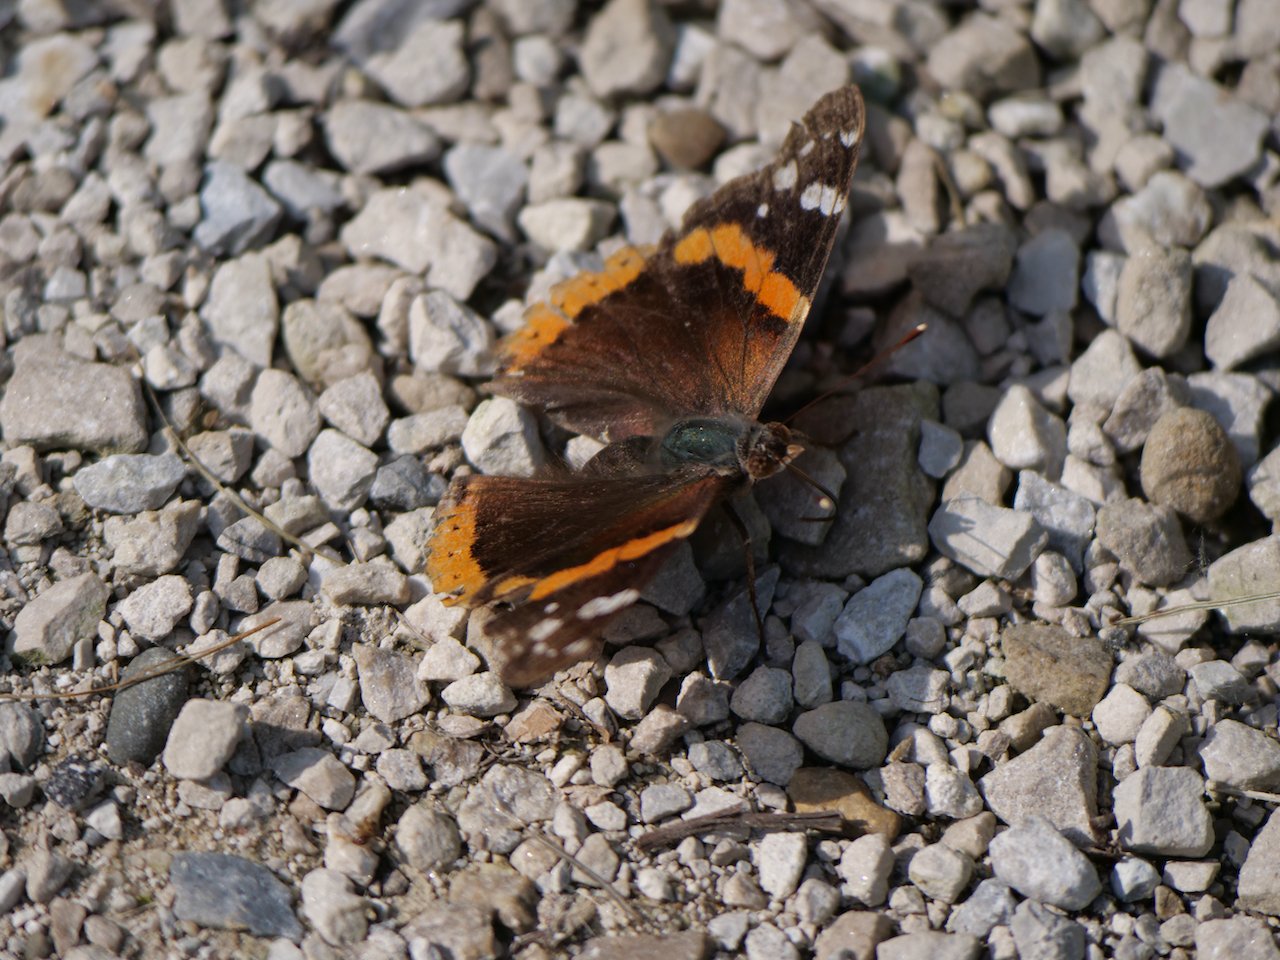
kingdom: Animalia
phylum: Arthropoda
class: Insecta
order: Lepidoptera
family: Nymphalidae
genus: Vanessa
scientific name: Vanessa atalanta
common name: Red Admiral
